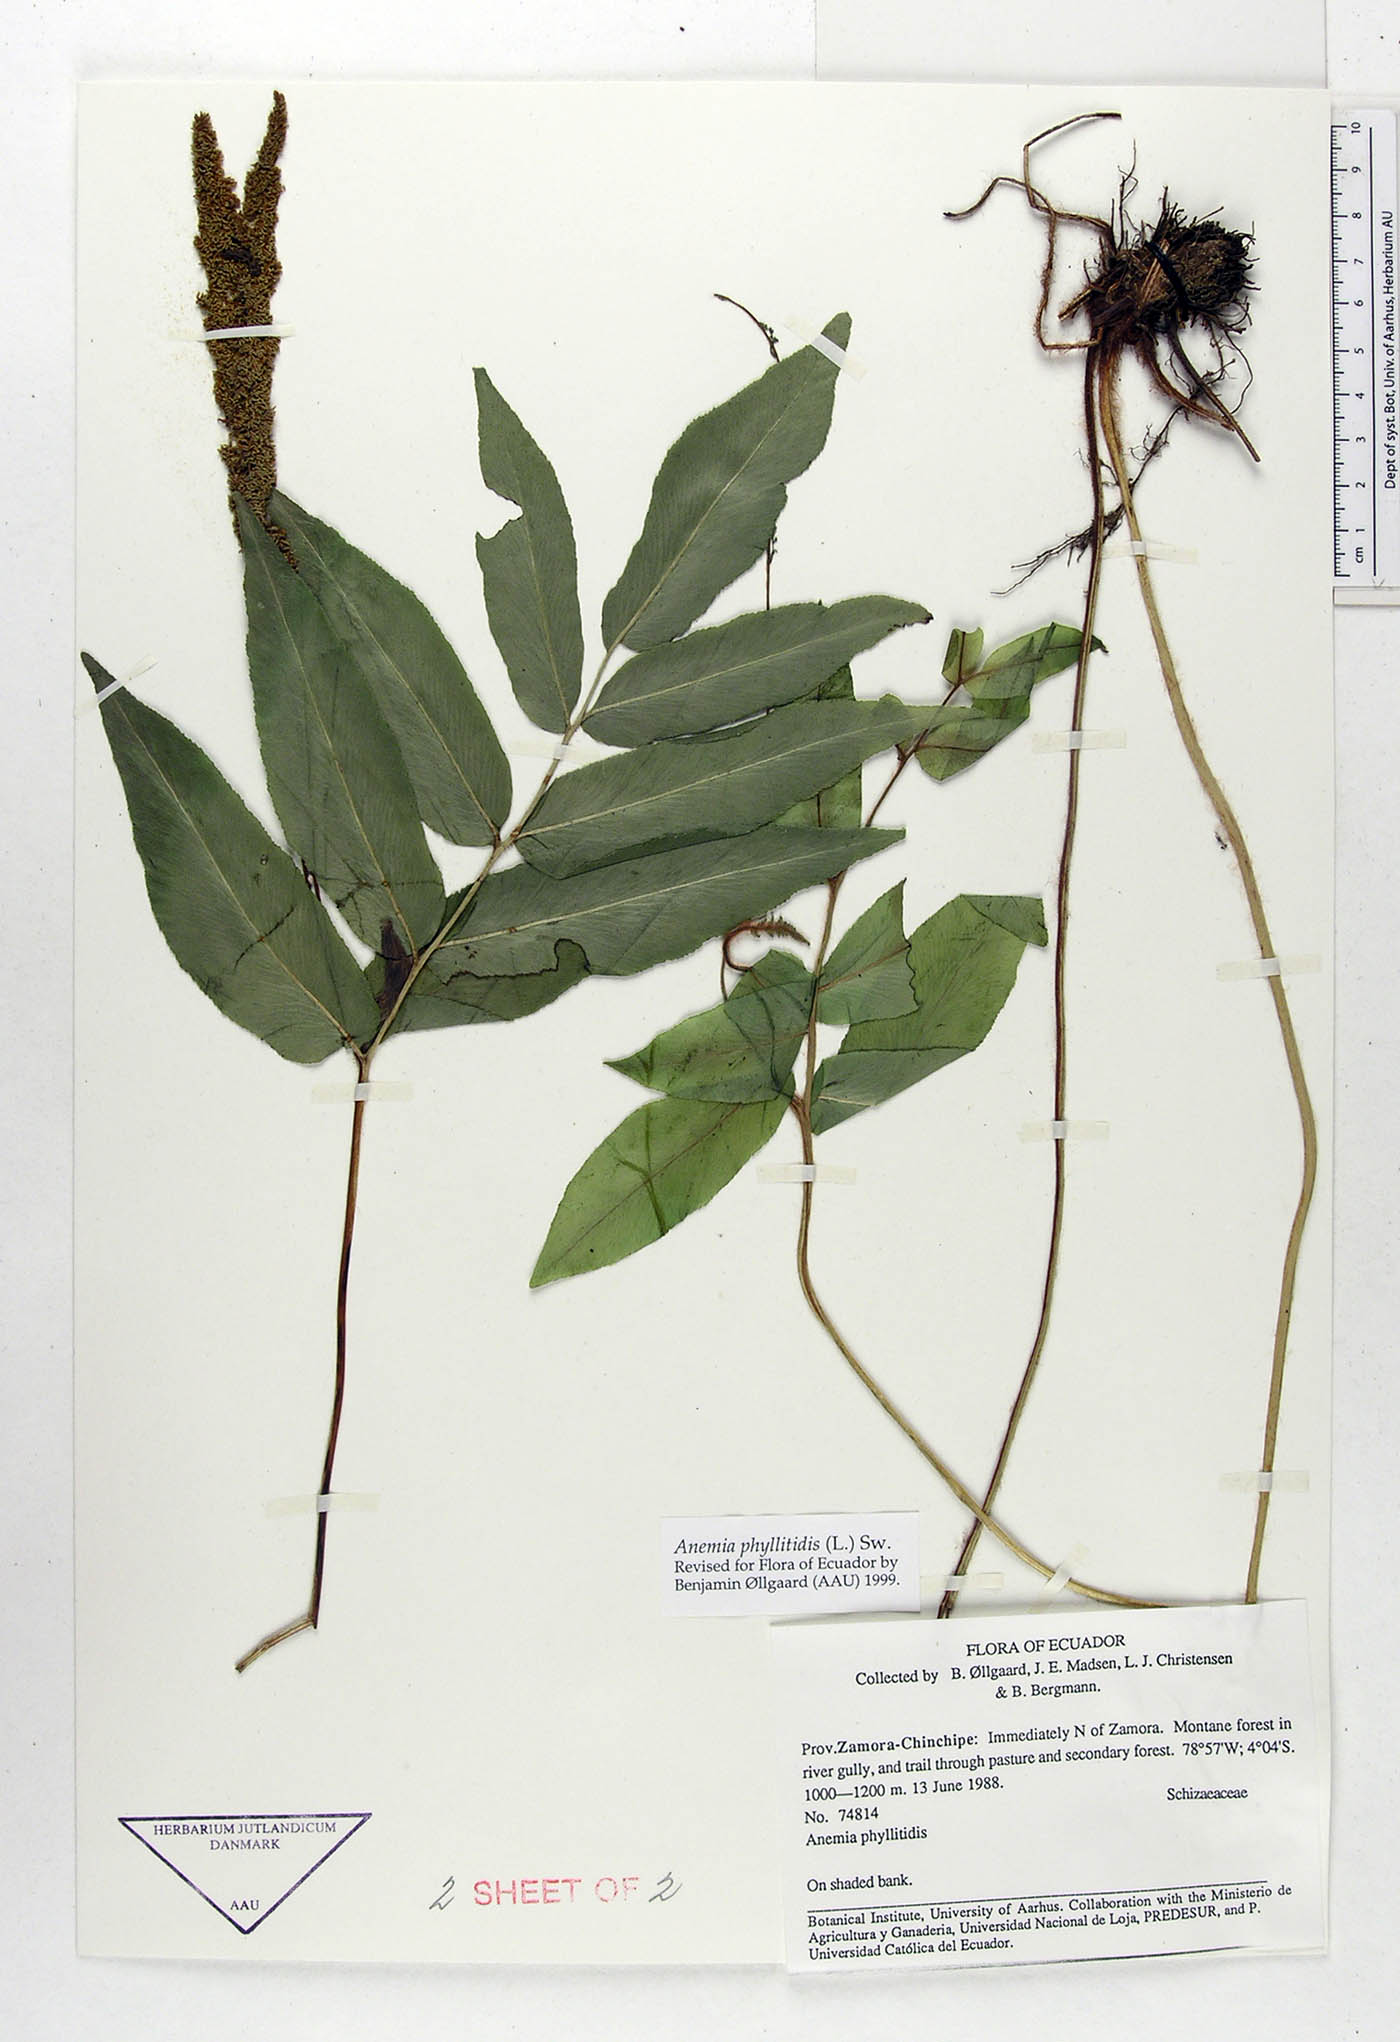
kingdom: Plantae
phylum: Tracheophyta
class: Polypodiopsida
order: Schizaeales
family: Anemiaceae
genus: Anemia
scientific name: Anemia phyllitidis
